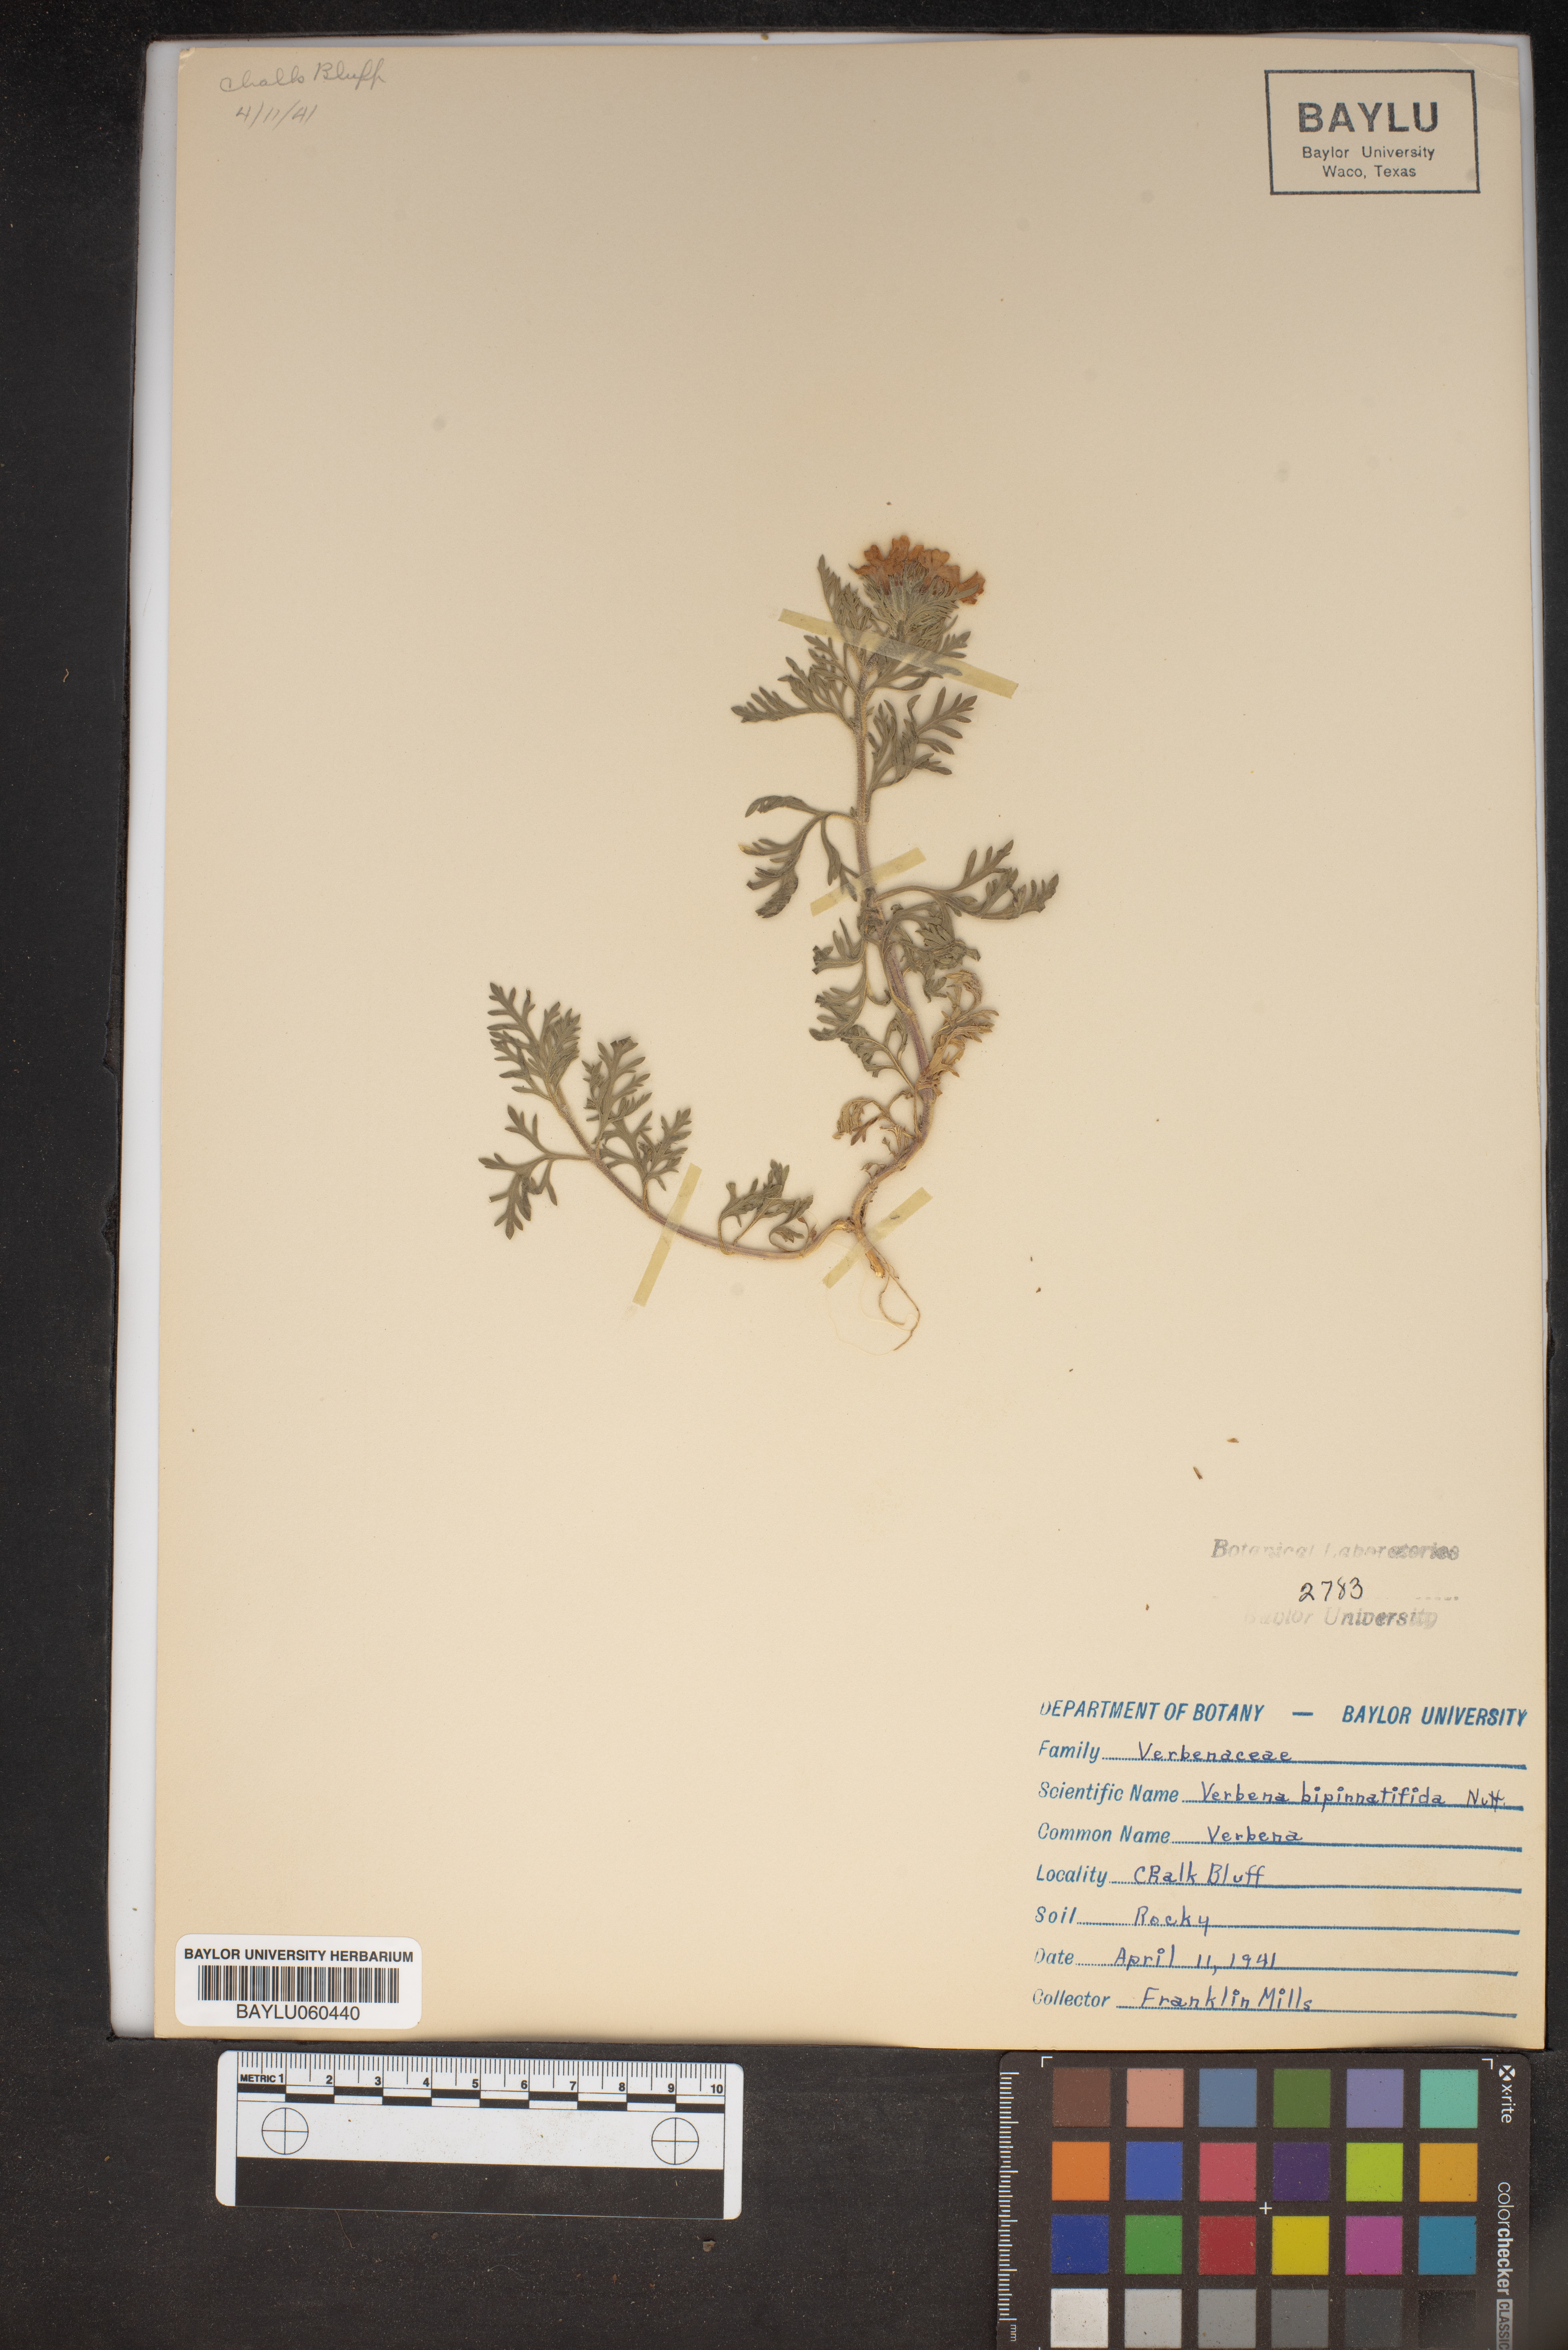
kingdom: Plantae
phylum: Tracheophyta
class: Magnoliopsida
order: Lamiales
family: Verbenaceae
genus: Verbena
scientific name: Verbena bipinnatifida
